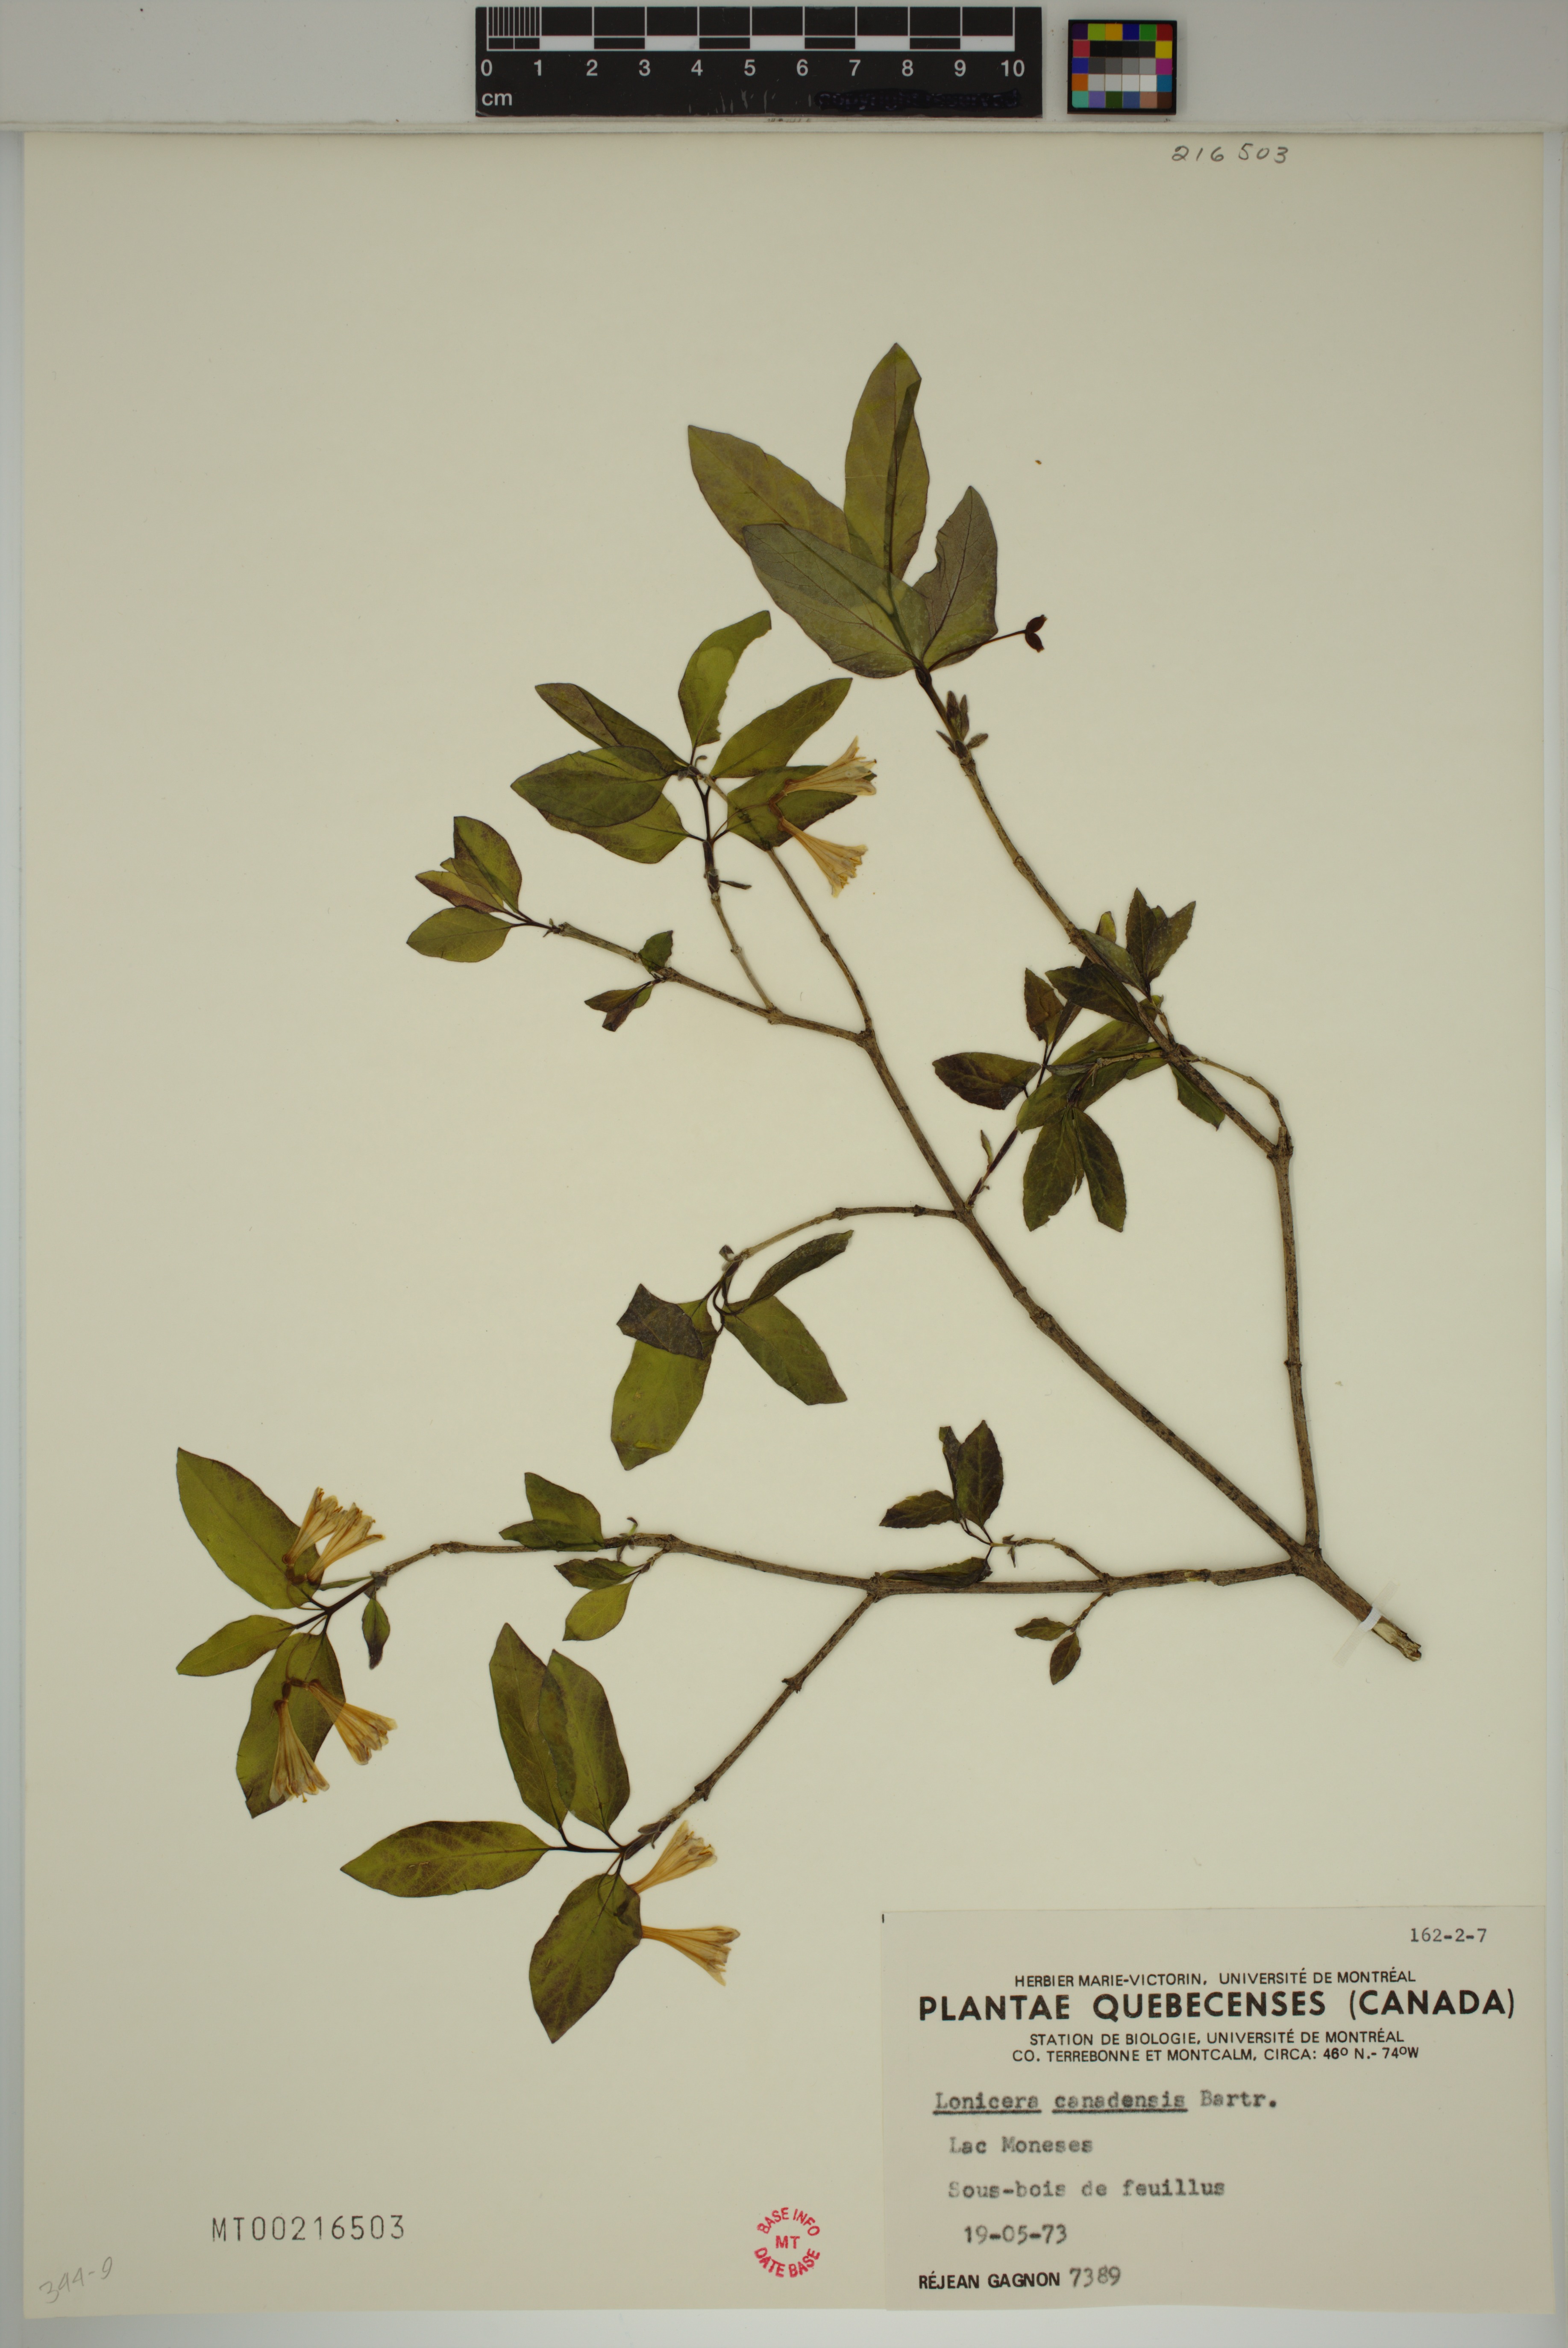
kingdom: Plantae
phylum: Tracheophyta
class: Magnoliopsida
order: Dipsacales
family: Caprifoliaceae
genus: Lonicera
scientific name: Lonicera canadensis
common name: American fly-honeysuckle
